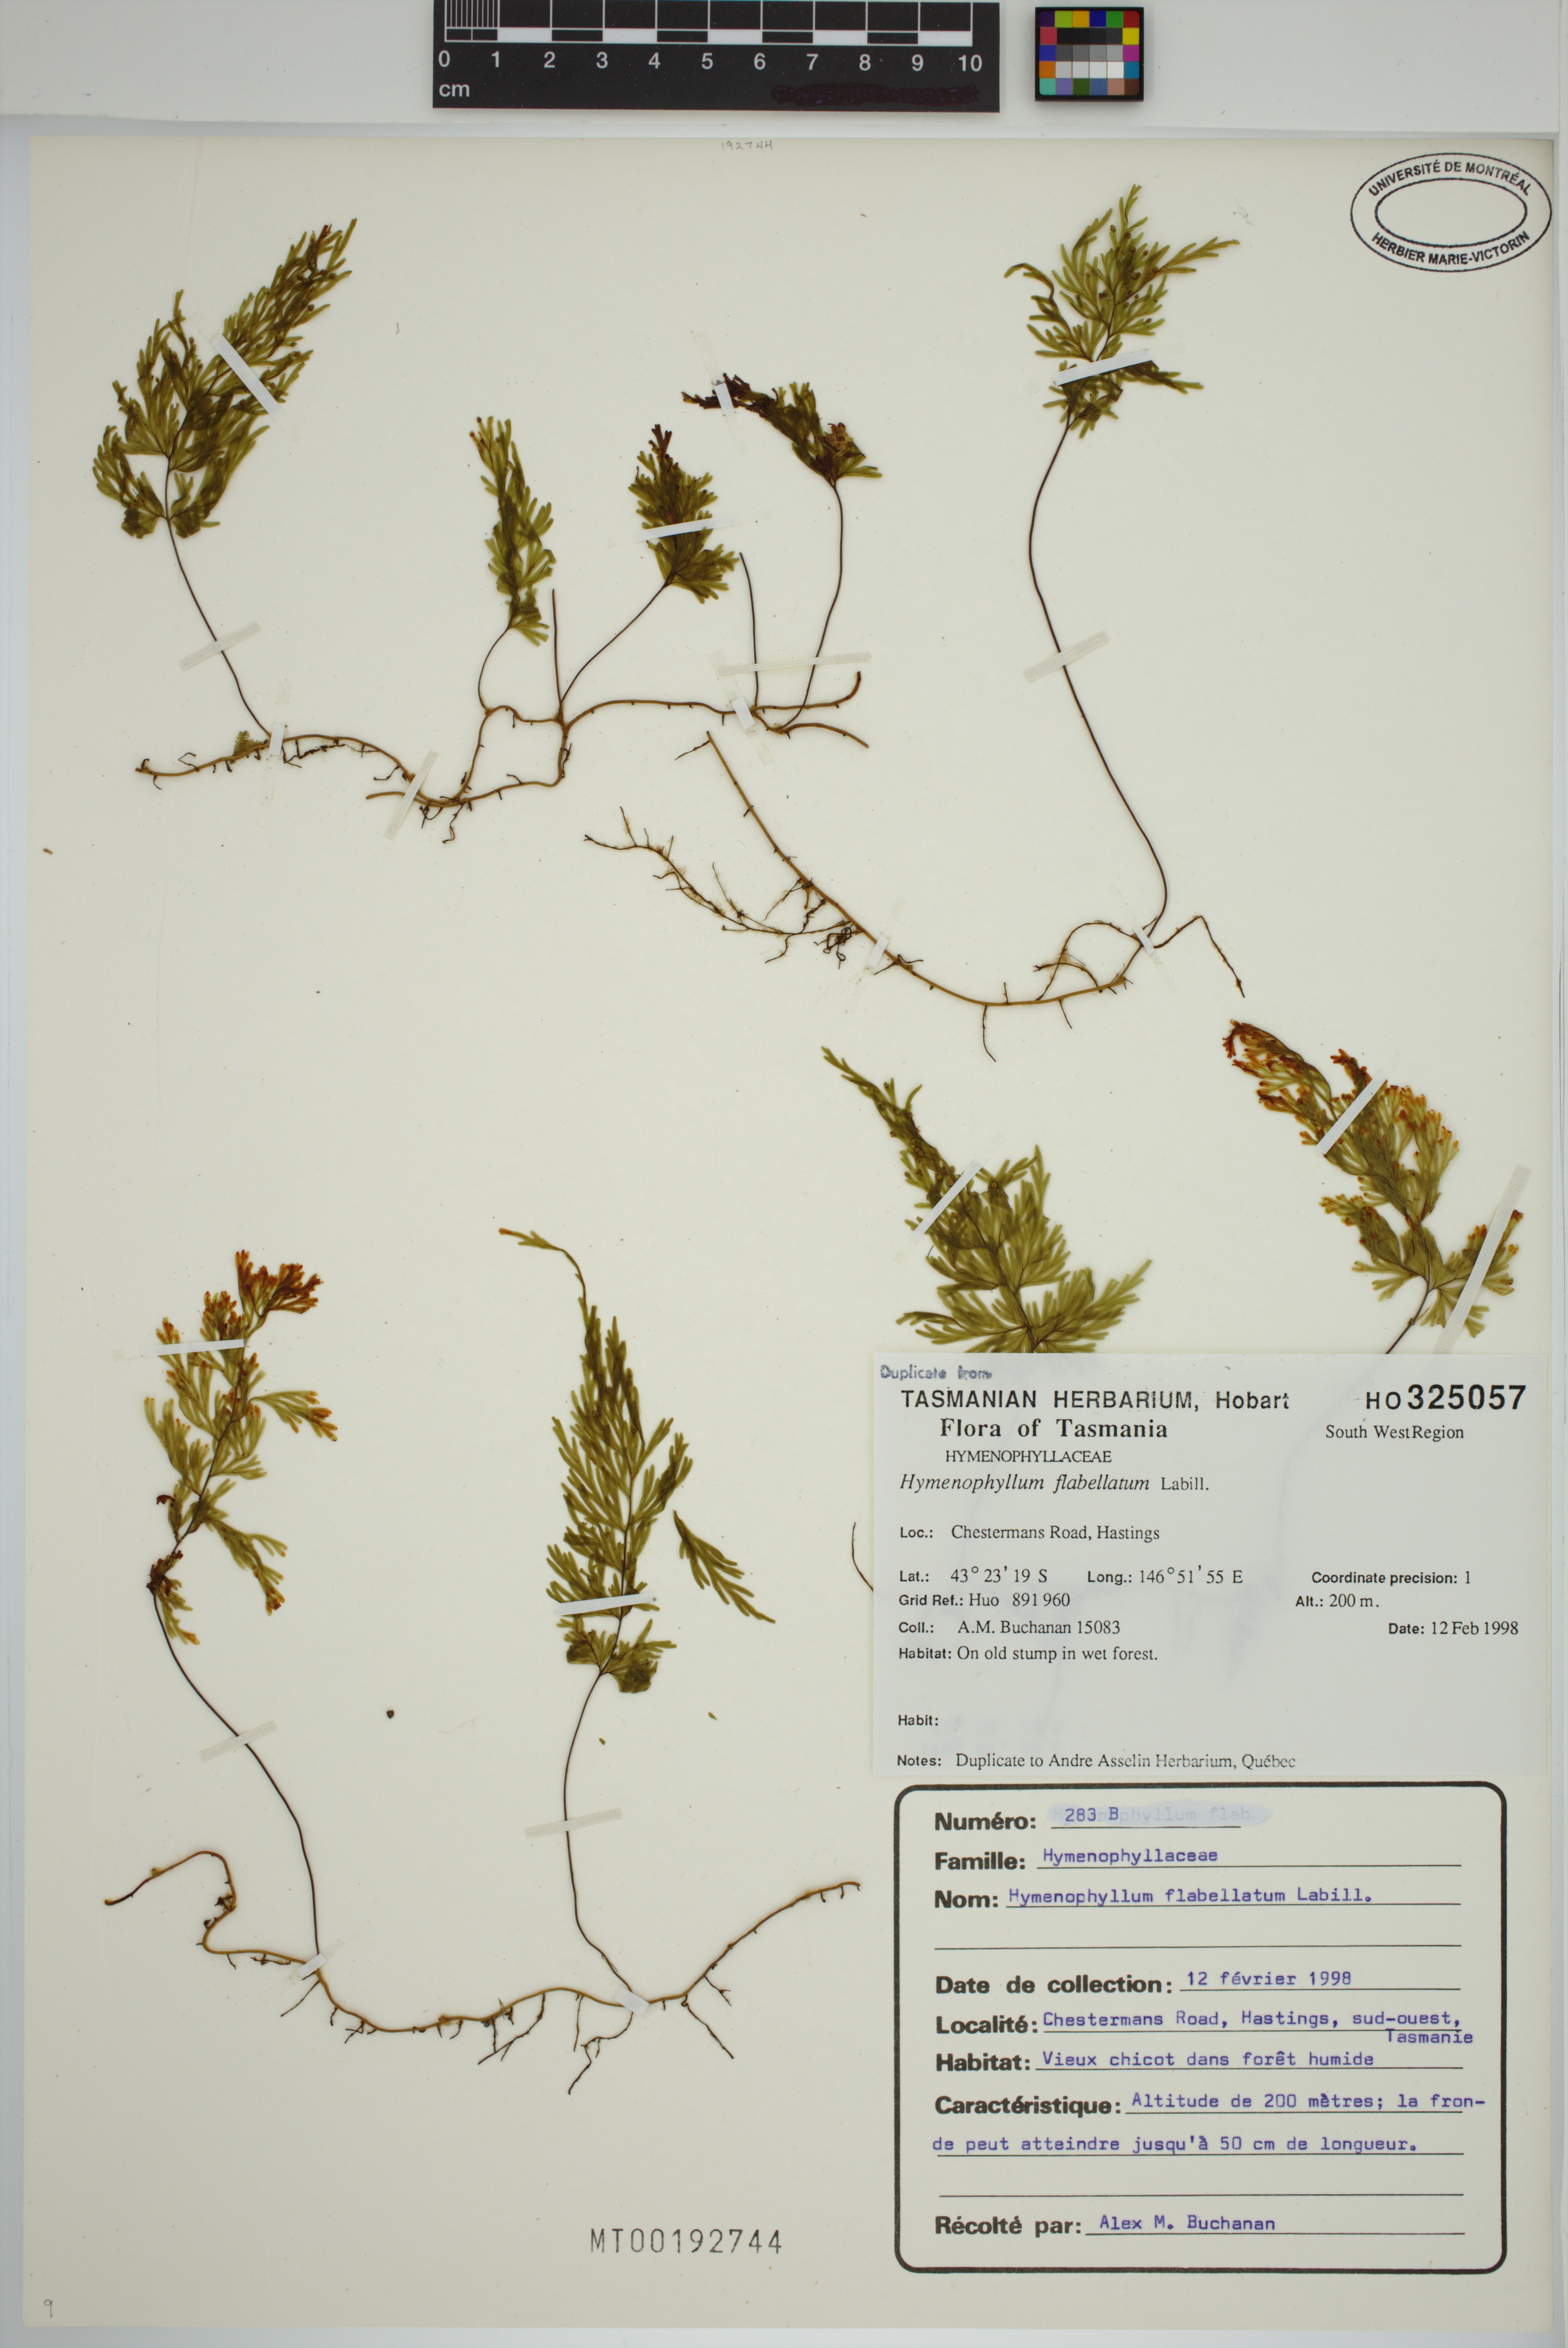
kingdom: Plantae
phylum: Tracheophyta
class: Polypodiopsida
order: Hymenophyllales
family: Hymenophyllaceae
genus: Hymenophyllum
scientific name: Hymenophyllum flabellatum
